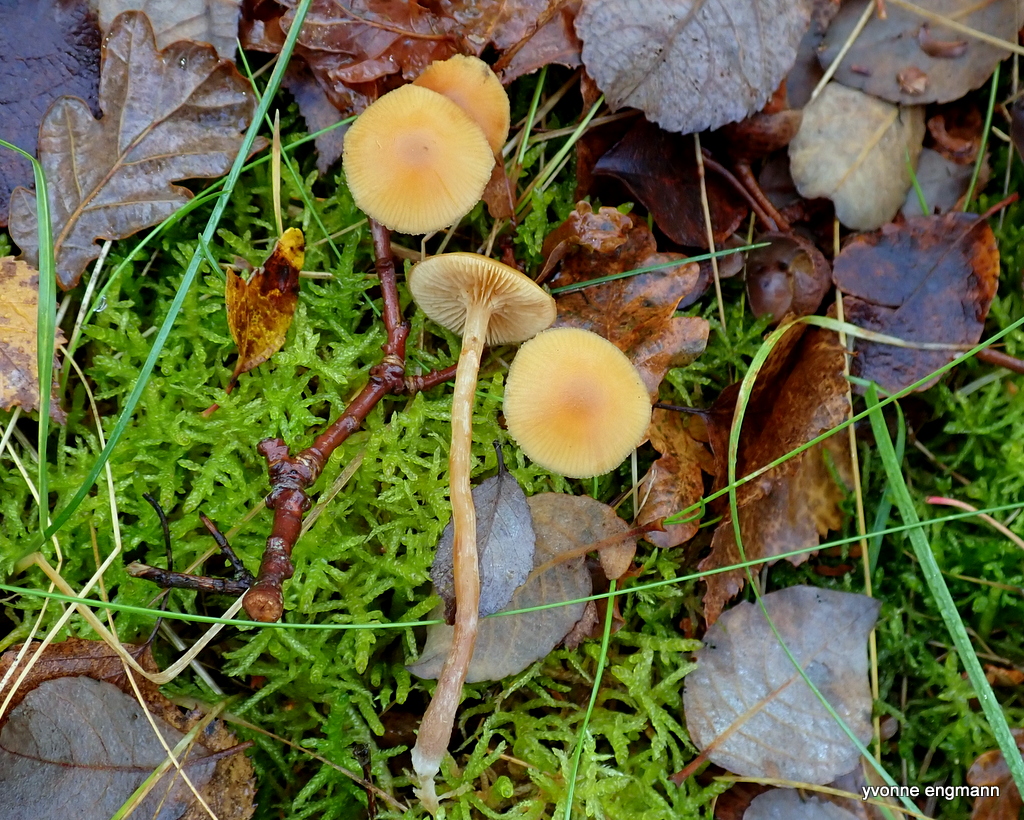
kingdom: Fungi
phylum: Basidiomycota
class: Agaricomycetes
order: Agaricales
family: Hymenogastraceae
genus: Galerina
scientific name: Galerina
